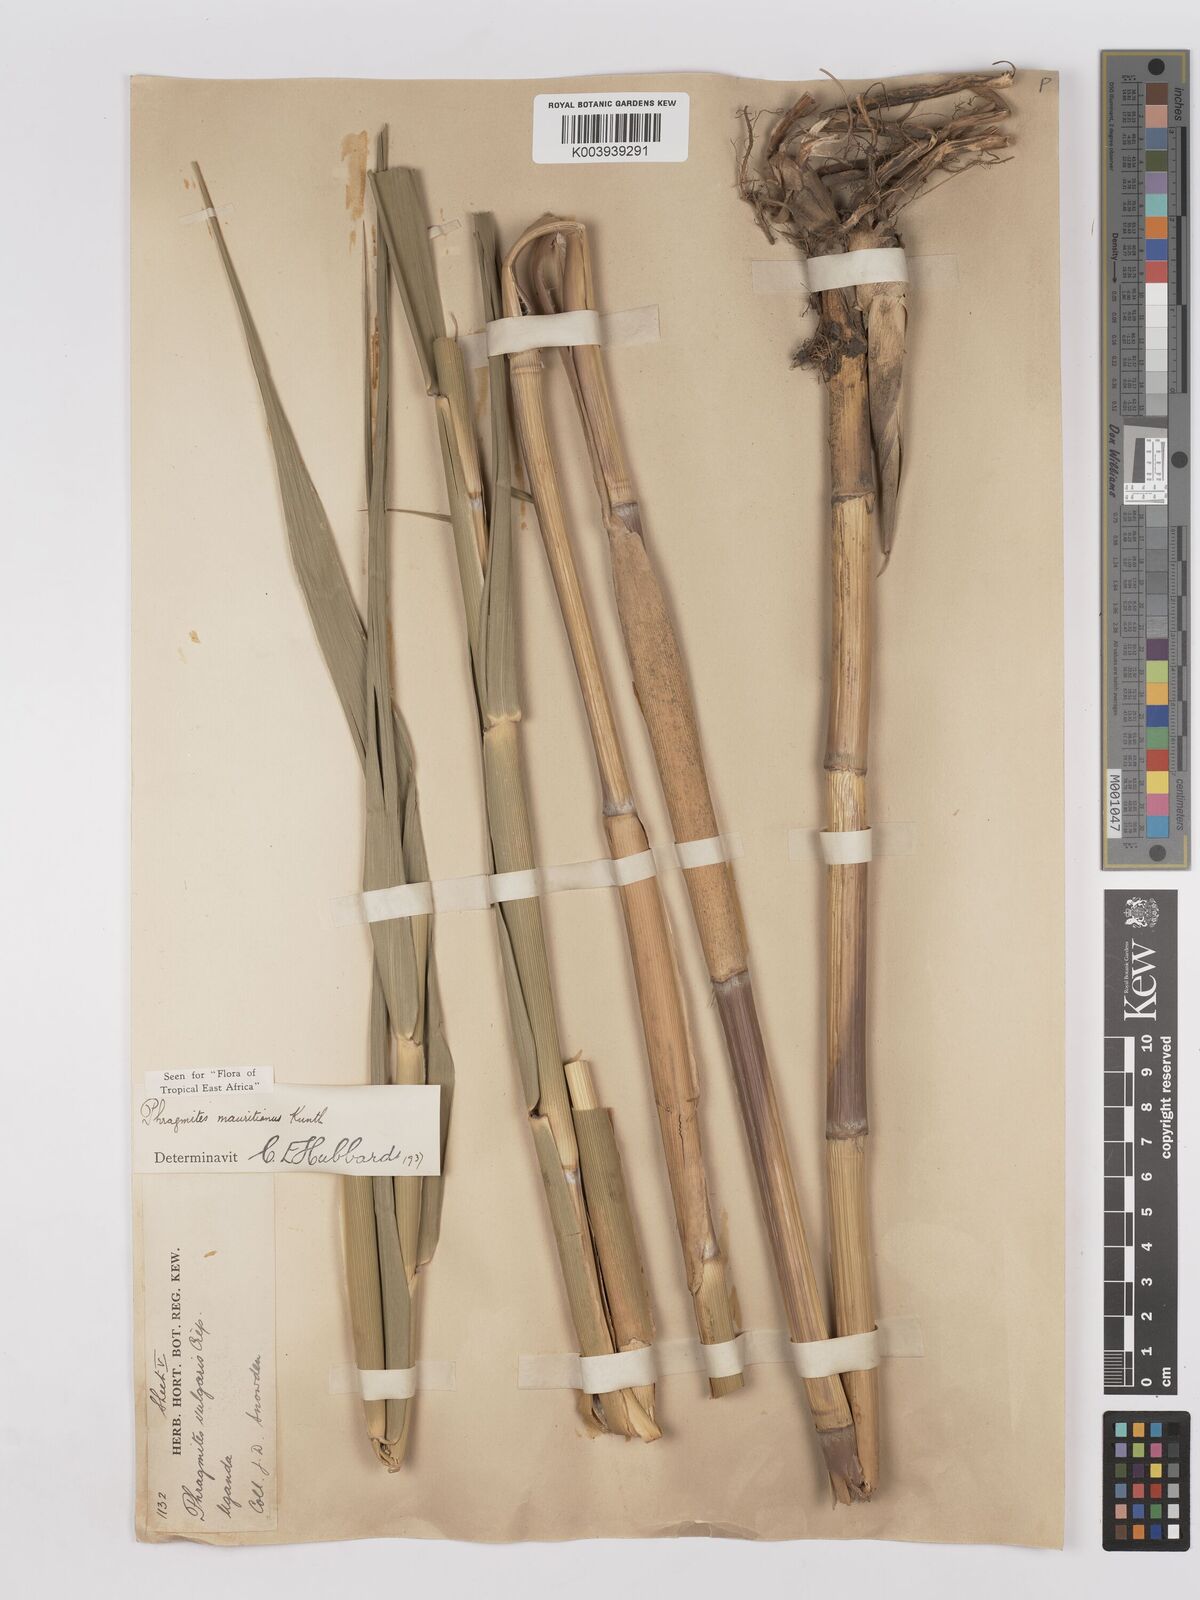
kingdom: Plantae
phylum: Tracheophyta
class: Liliopsida
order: Poales
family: Poaceae
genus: Phragmites
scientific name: Phragmites mauritianus
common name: Reed grass
